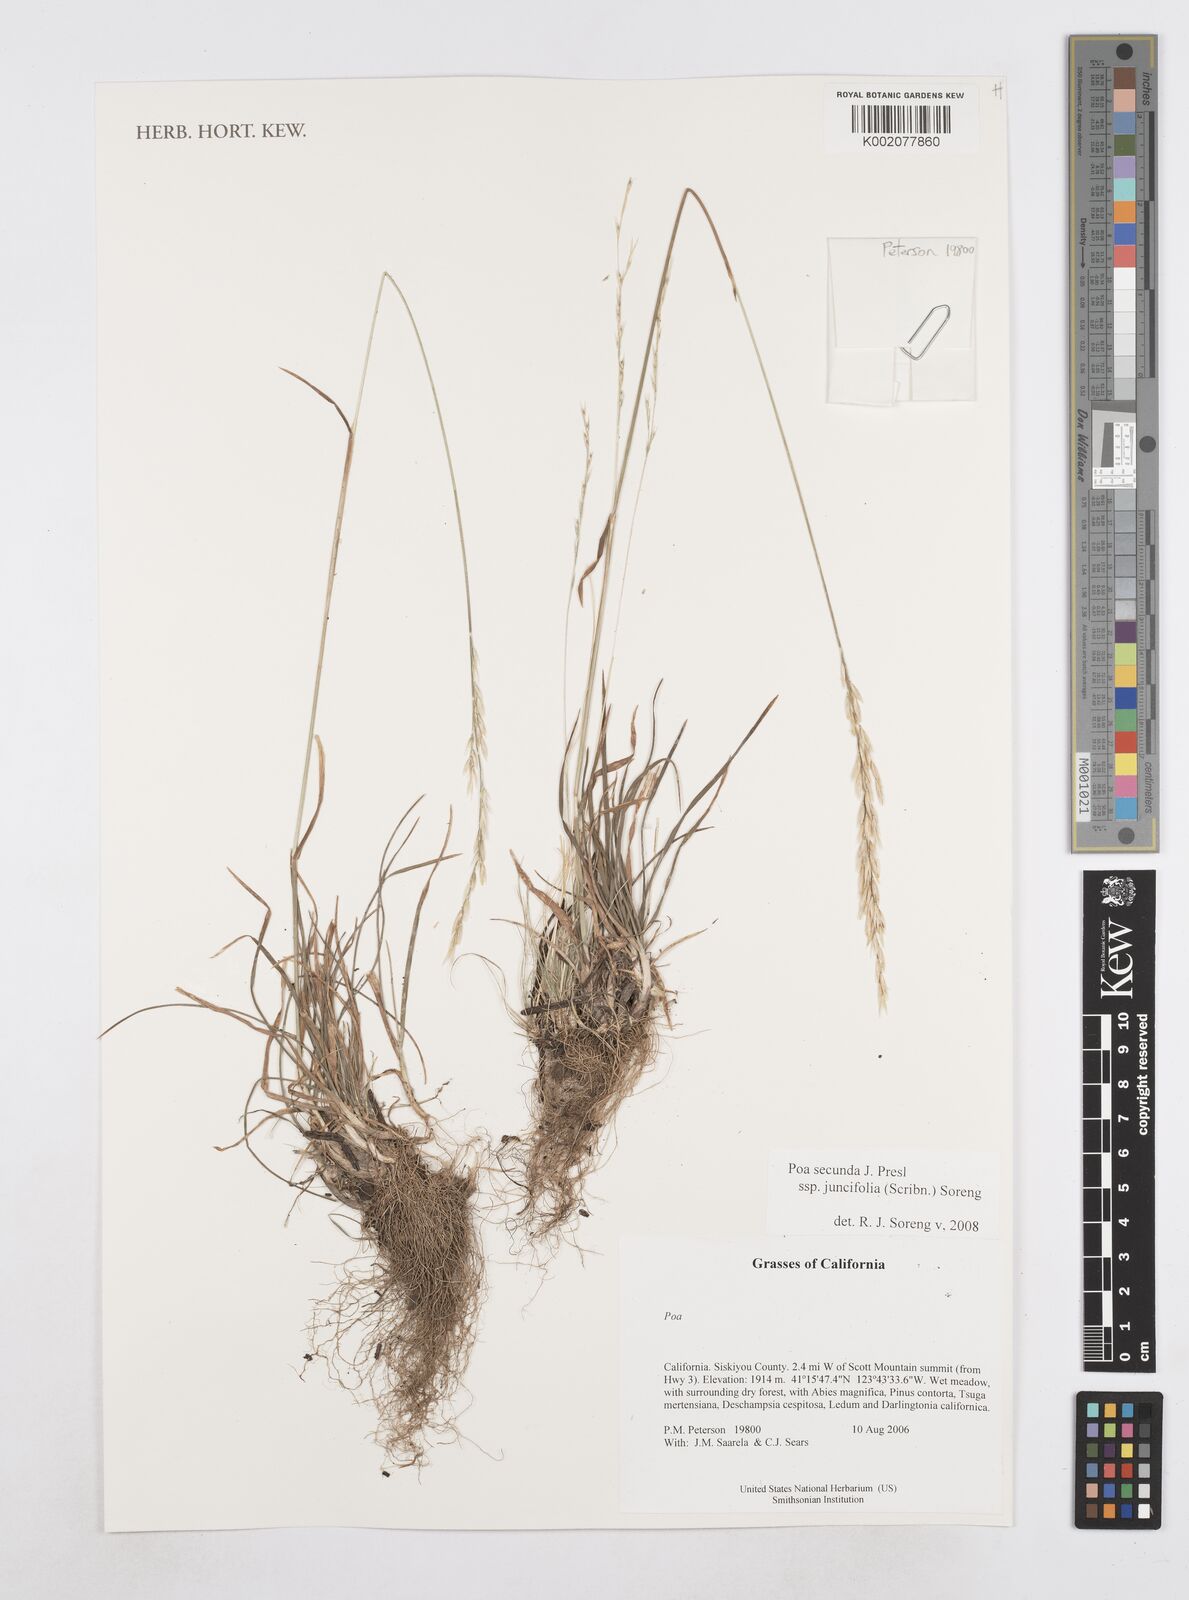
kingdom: Plantae
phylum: Tracheophyta
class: Liliopsida
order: Poales
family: Poaceae
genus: Poa
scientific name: Poa secunda
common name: Sandberg bluegrass
